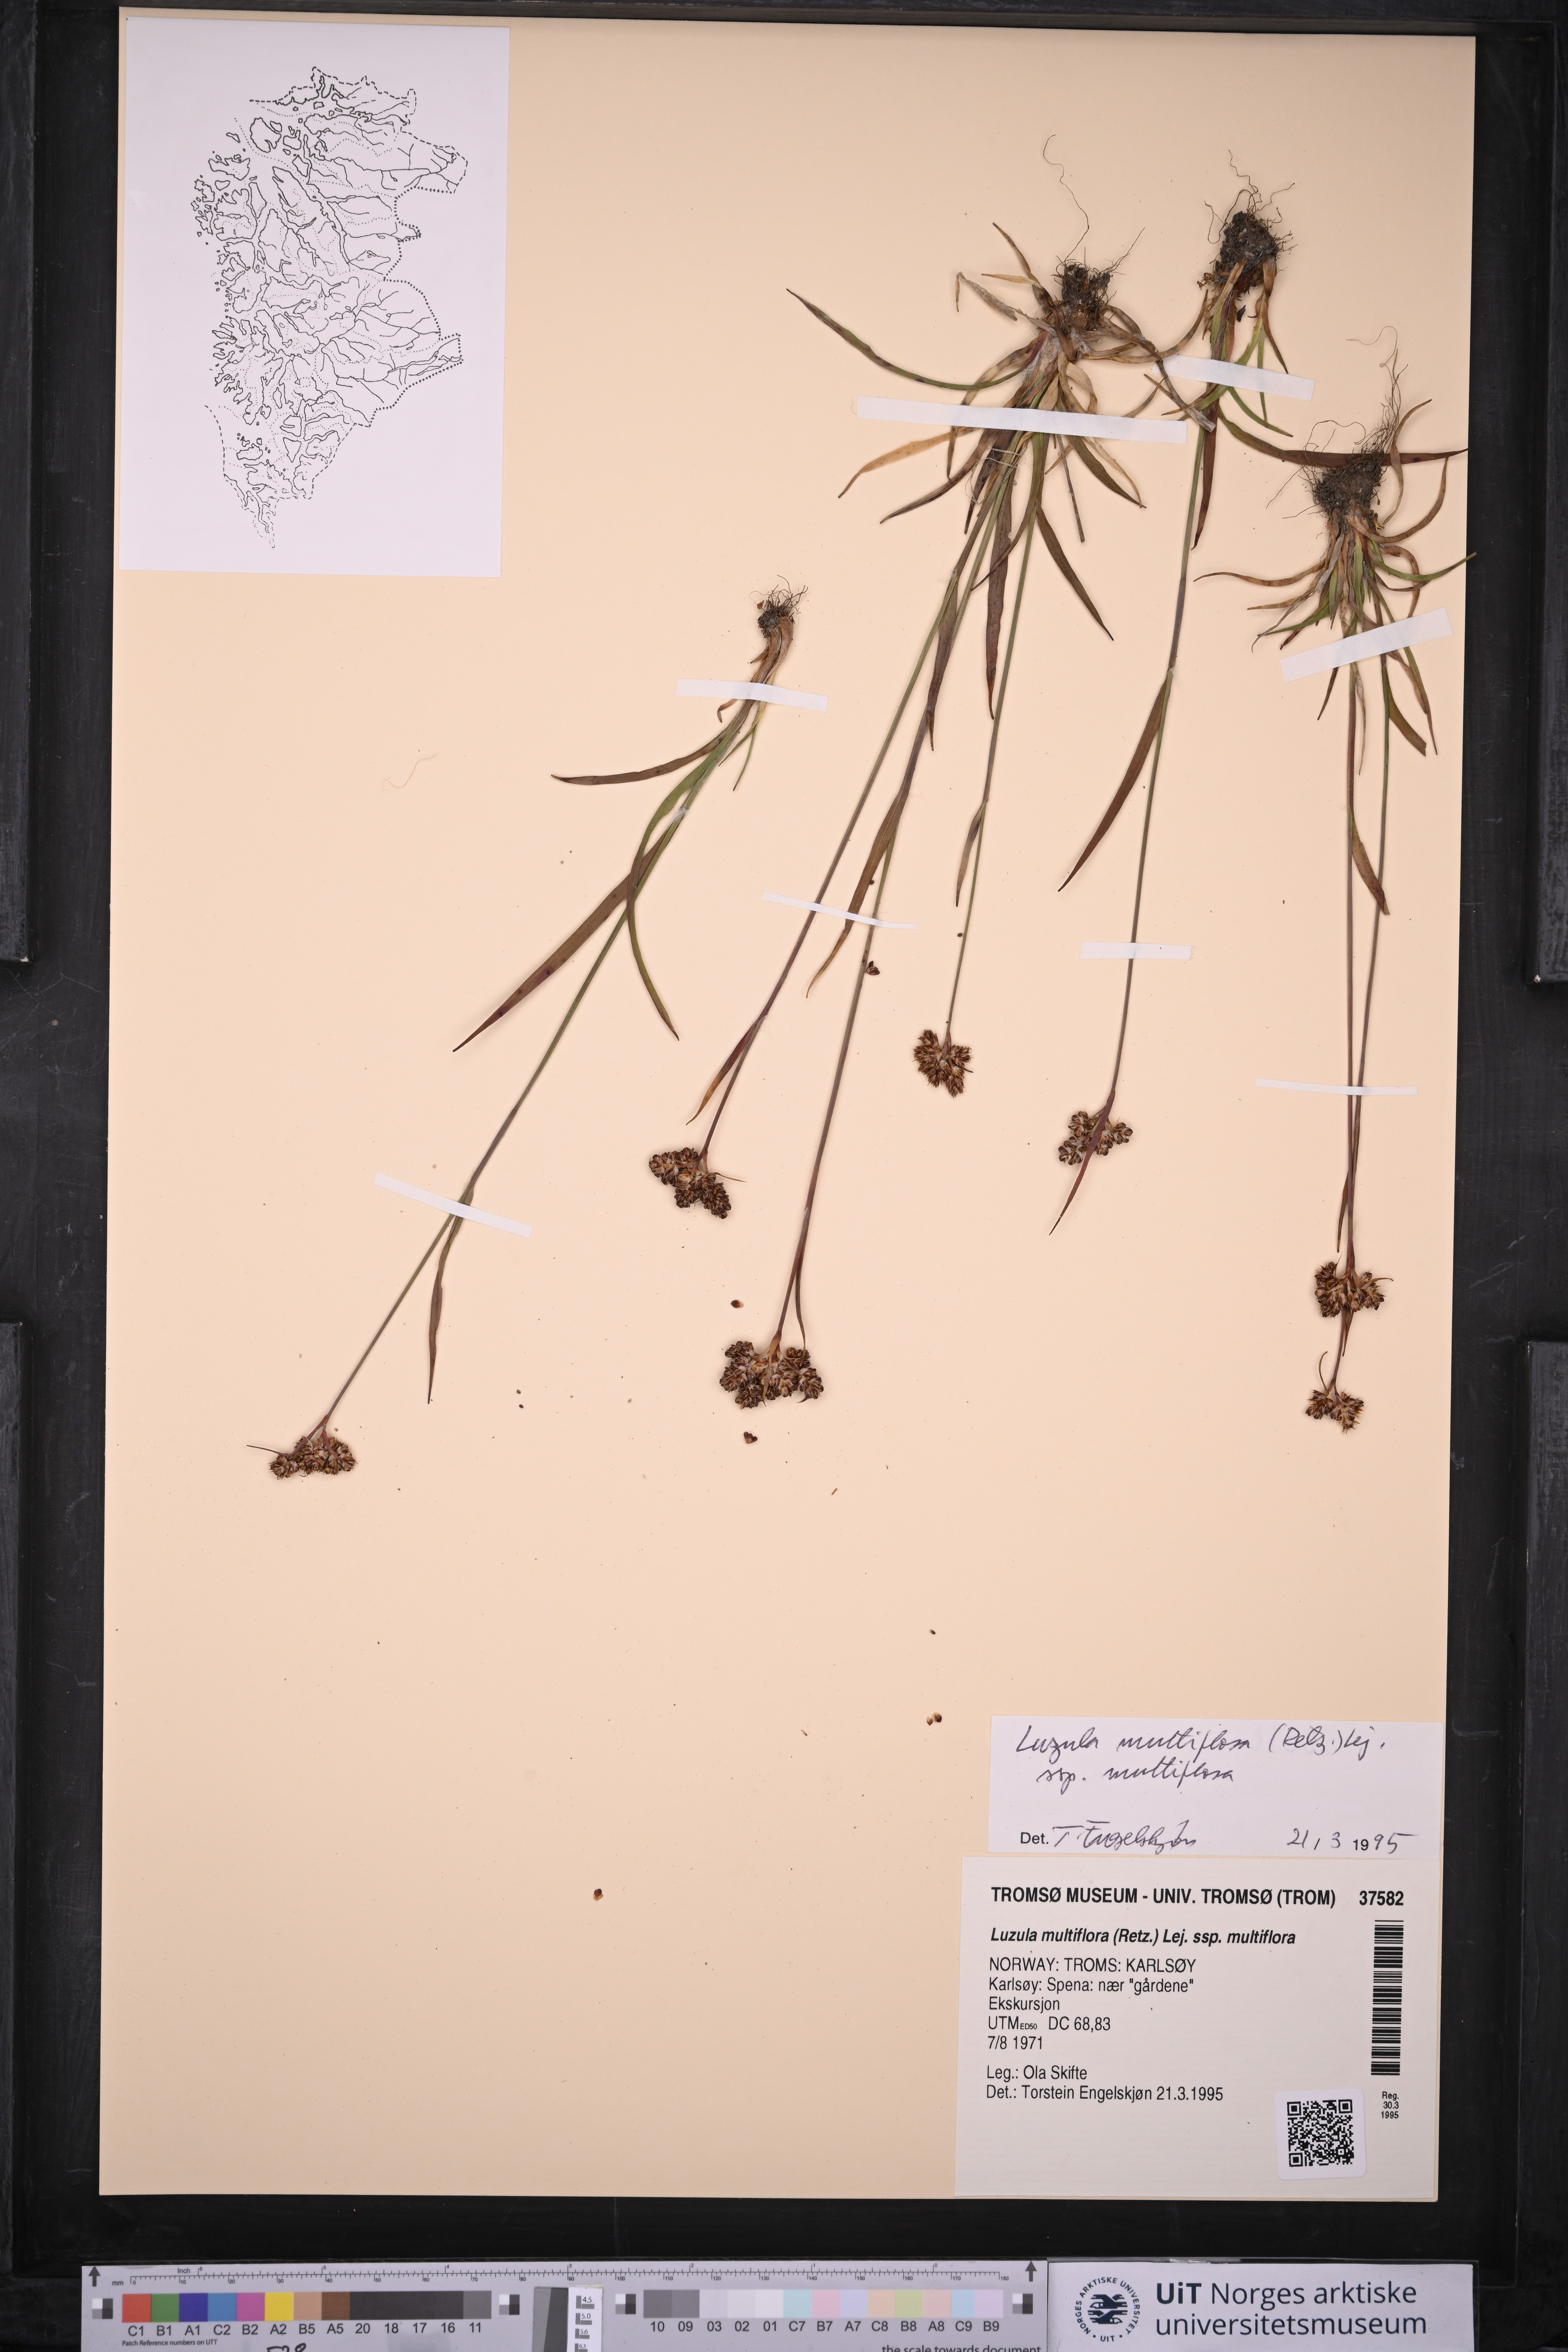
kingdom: Plantae
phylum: Tracheophyta
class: Liliopsida
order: Poales
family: Juncaceae
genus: Luzula
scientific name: Luzula multiflora
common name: Heath wood-rush
